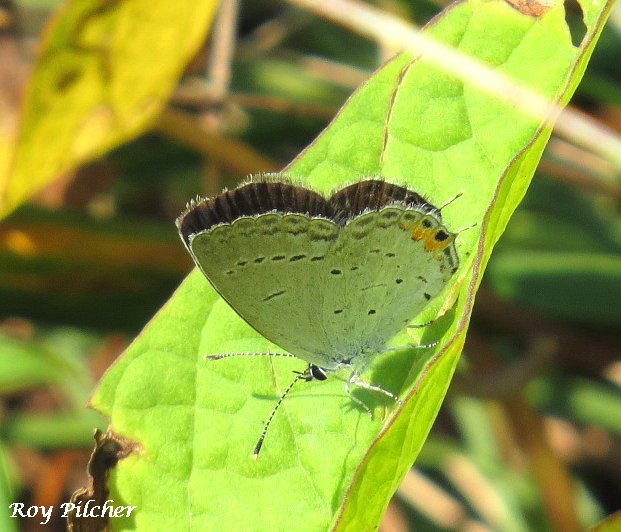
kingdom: Animalia
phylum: Arthropoda
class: Insecta
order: Lepidoptera
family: Lycaenidae
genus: Elkalyce
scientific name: Elkalyce comyntas
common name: Eastern Tailed-Blue
